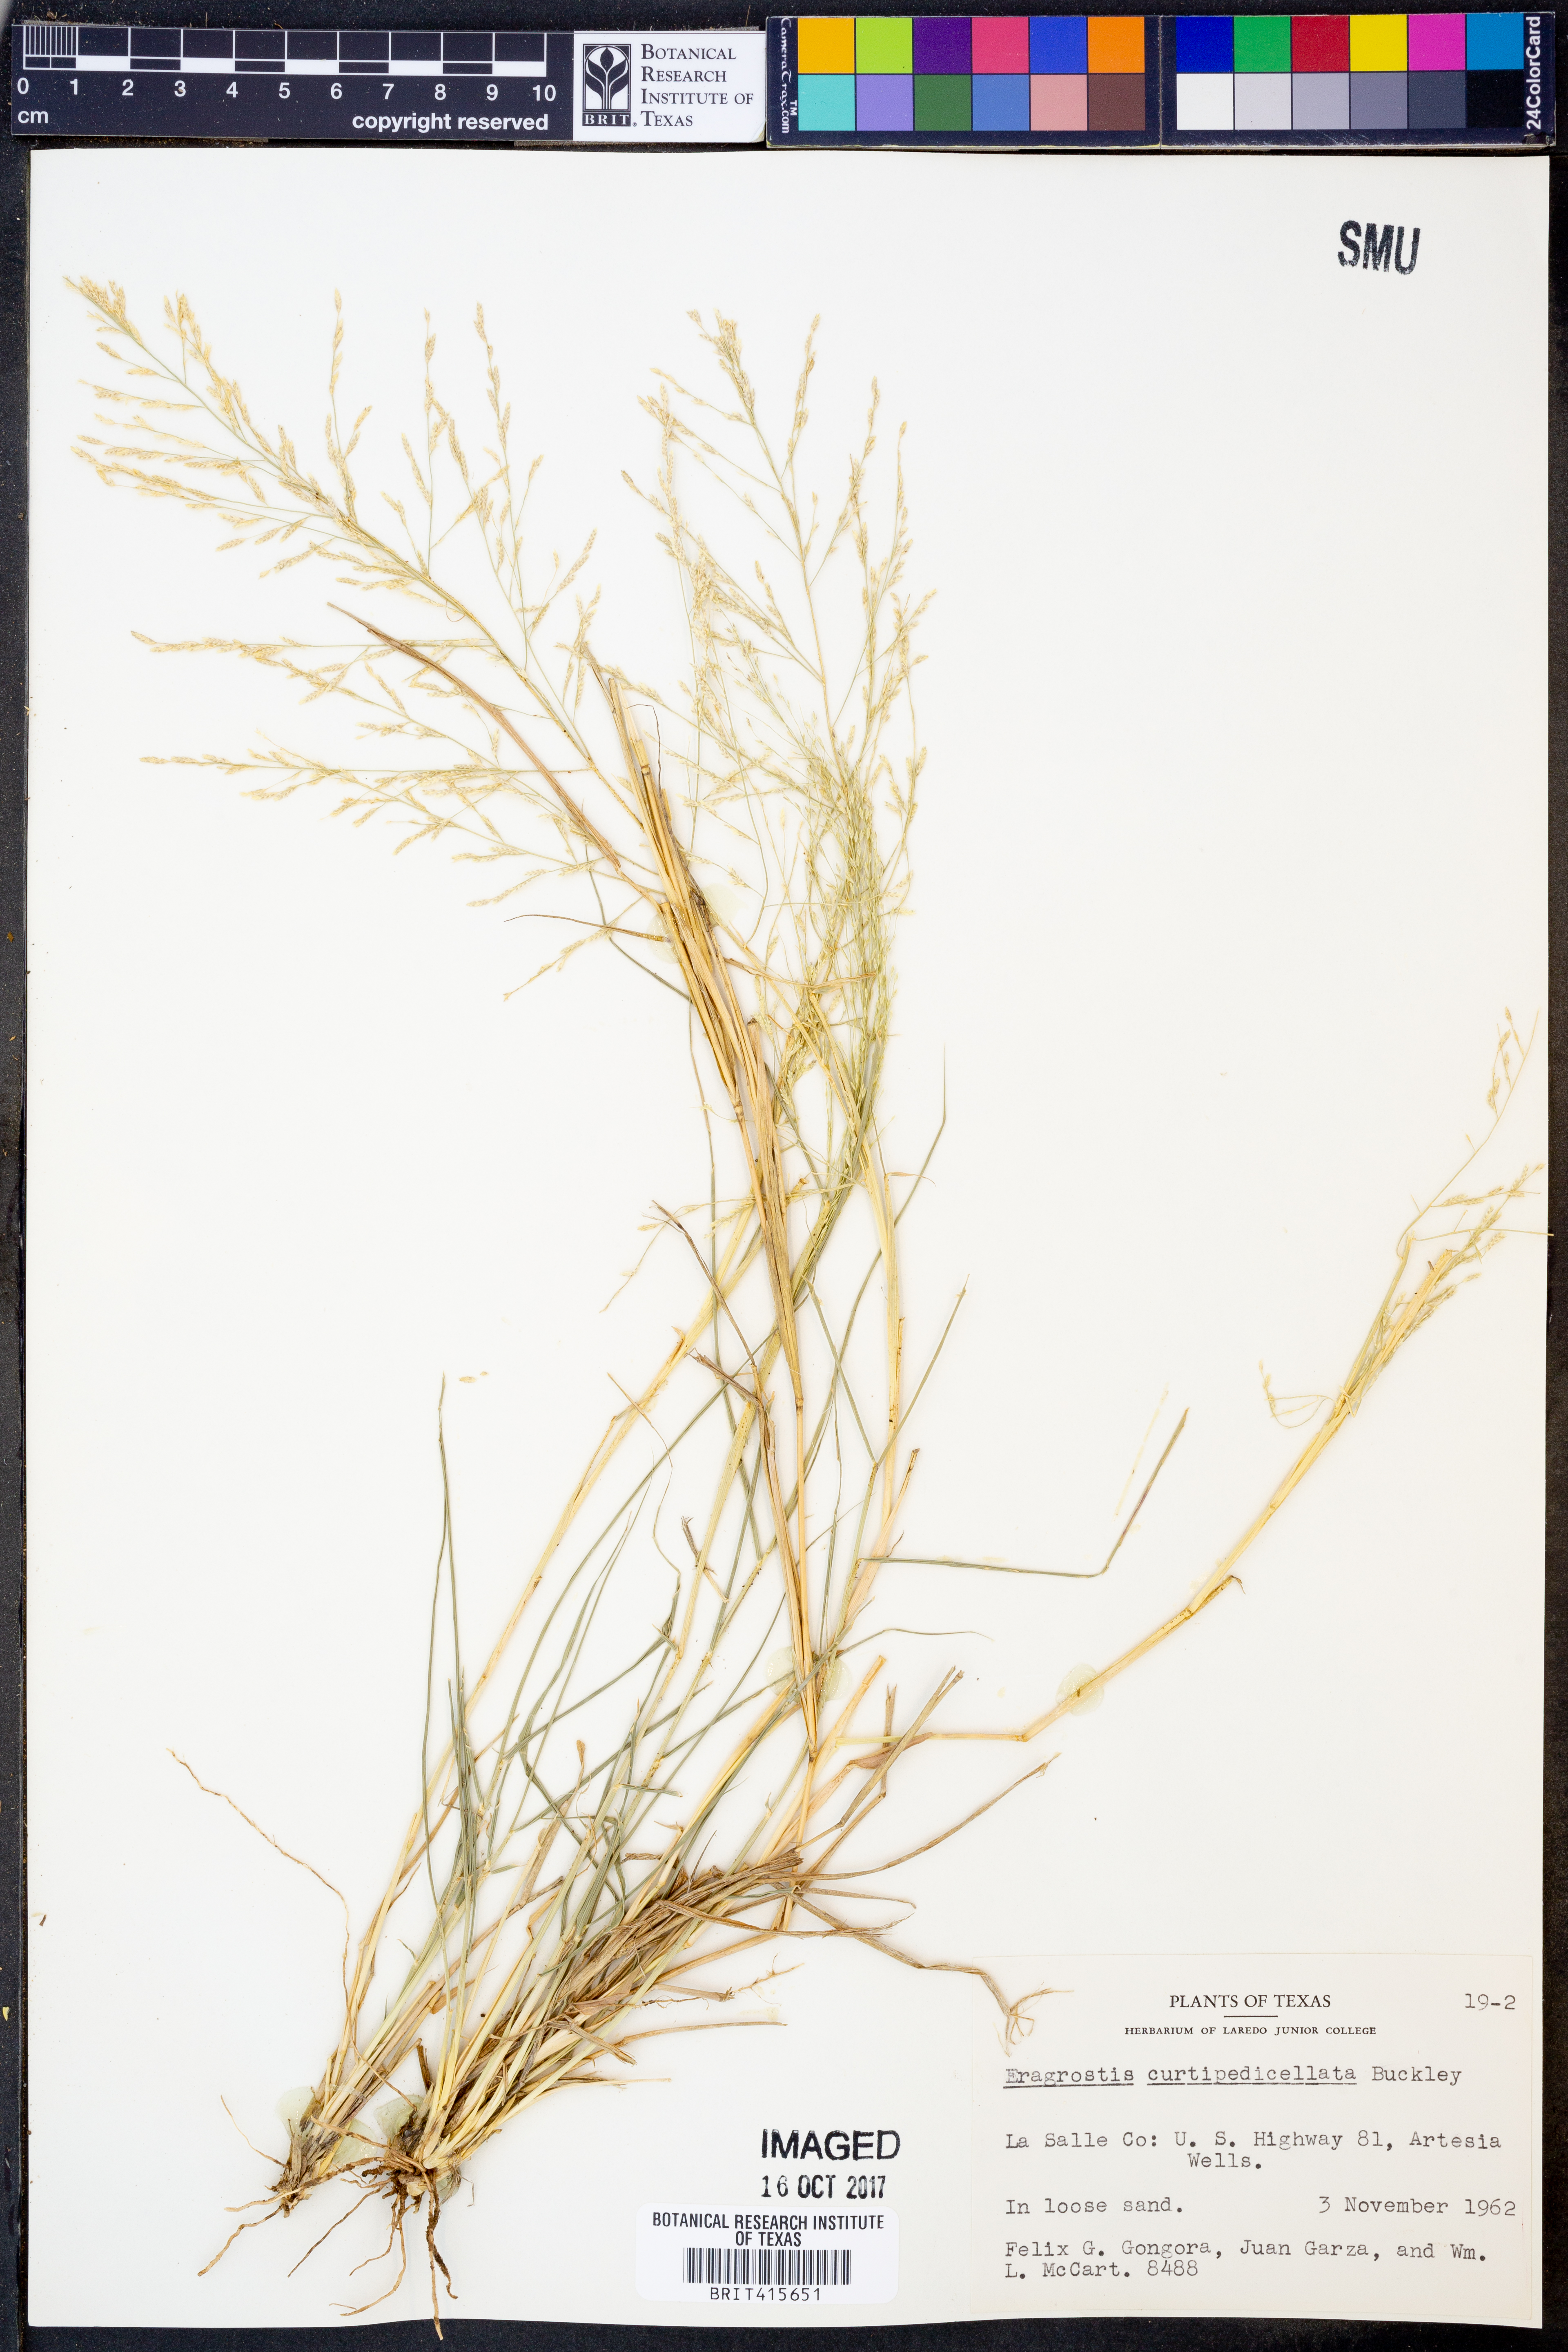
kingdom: Plantae
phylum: Tracheophyta
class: Liliopsida
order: Poales
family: Poaceae
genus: Eragrostis
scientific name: Eragrostis curtipedicellata
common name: Gummy love grass
